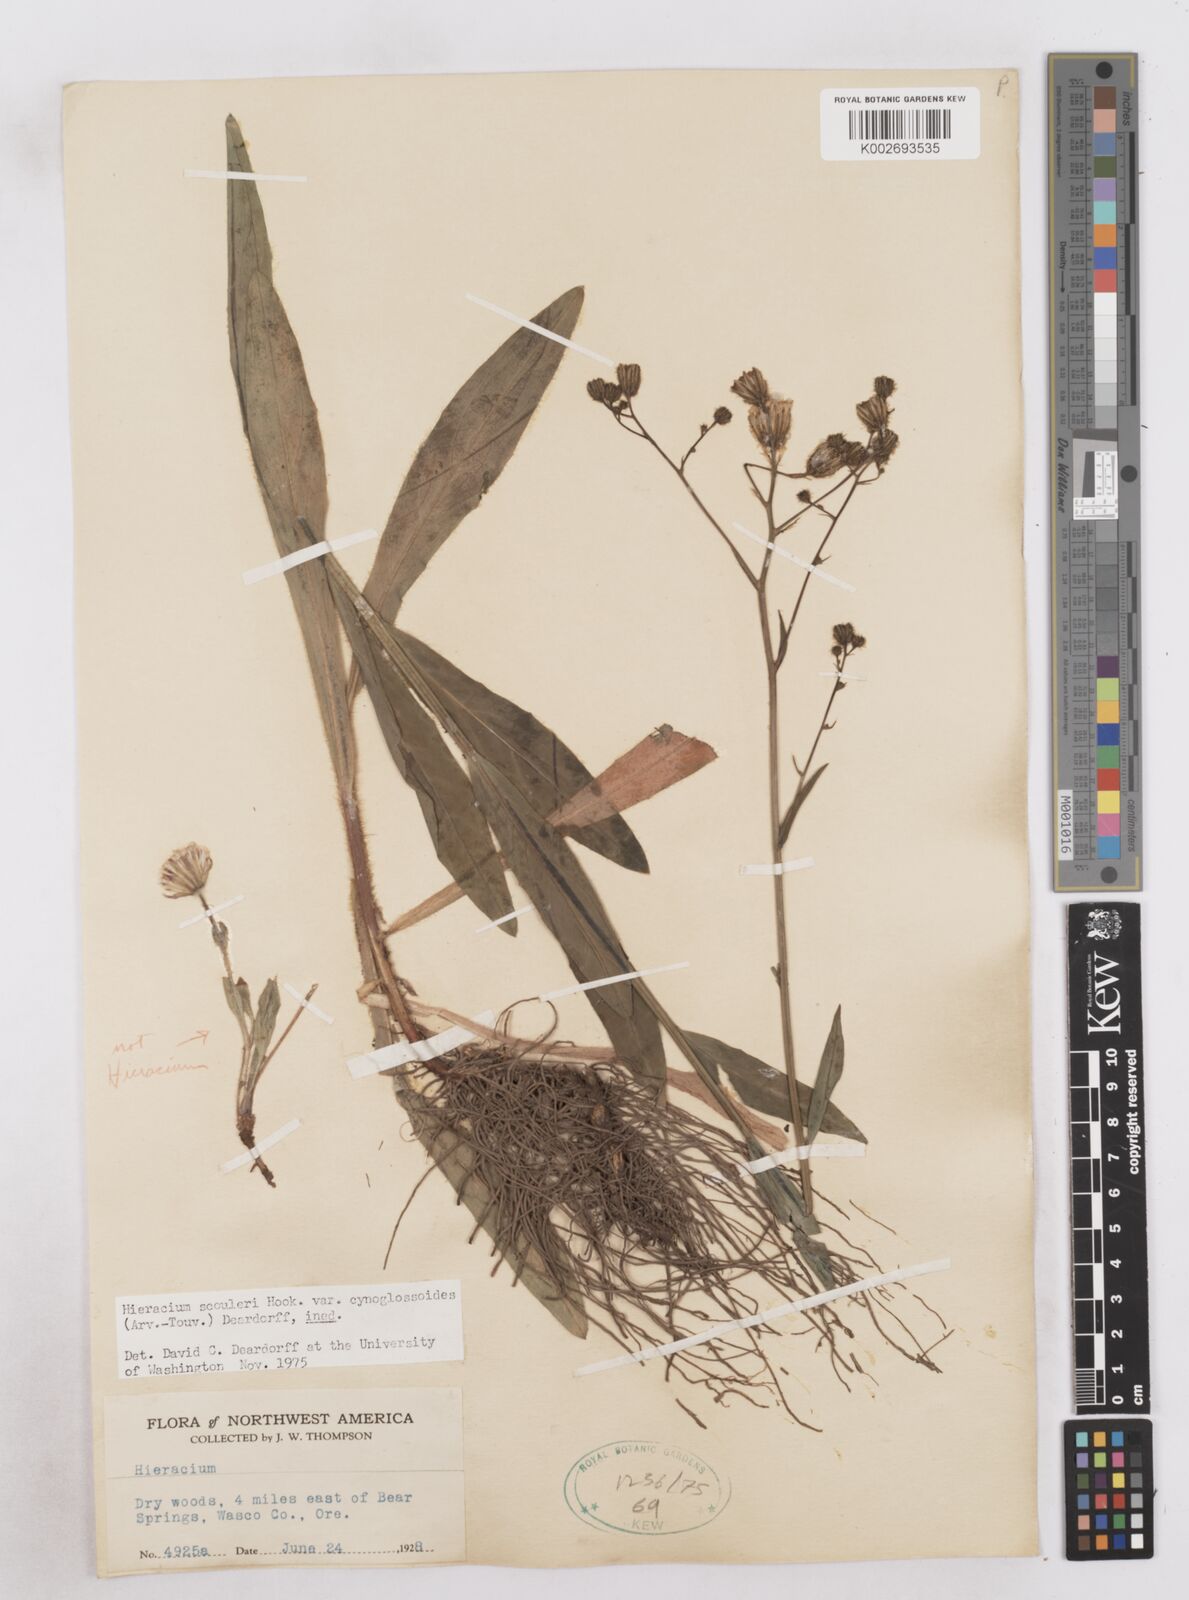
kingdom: Plantae
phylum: Tracheophyta
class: Magnoliopsida
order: Asterales
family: Asteraceae
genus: Hieracium
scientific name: Hieracium scouleri
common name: Hound's-tongue hawkweed
